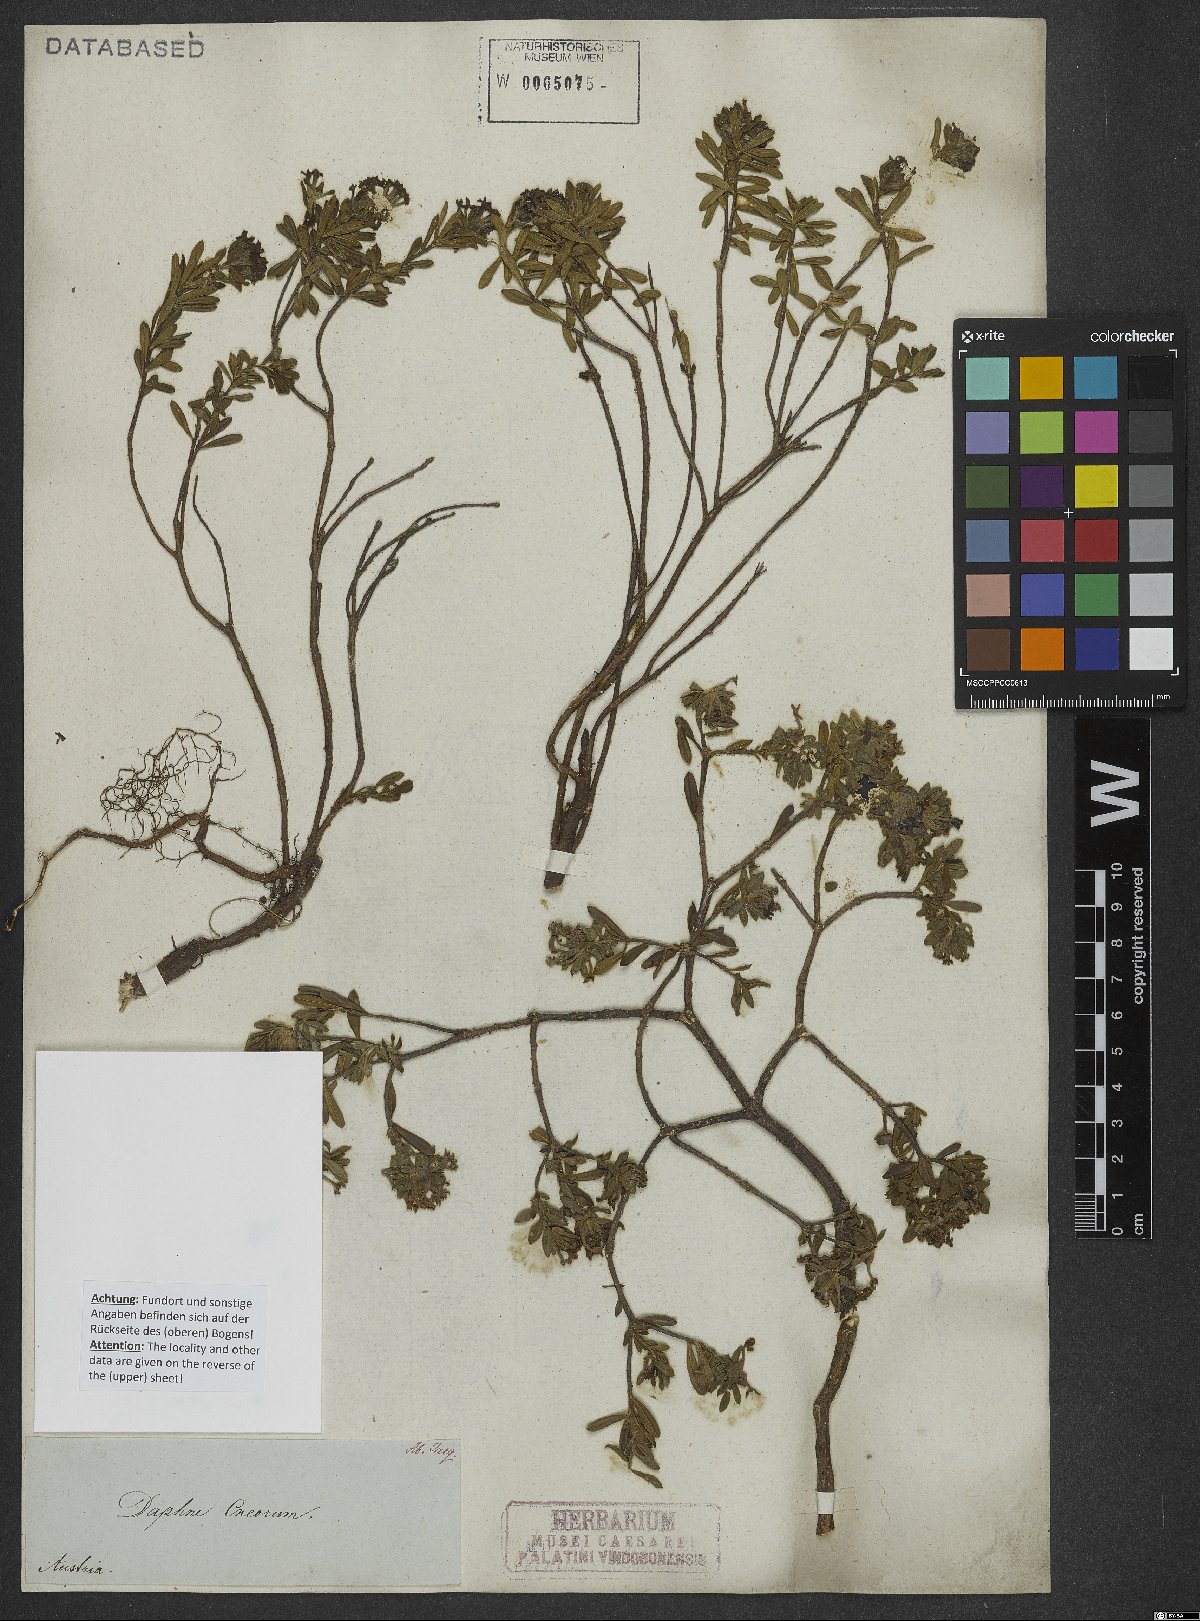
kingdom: Plantae
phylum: Tracheophyta
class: Magnoliopsida
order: Malvales
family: Thymelaeaceae
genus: Daphne
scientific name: Daphne cneorum
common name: Garland-flower
